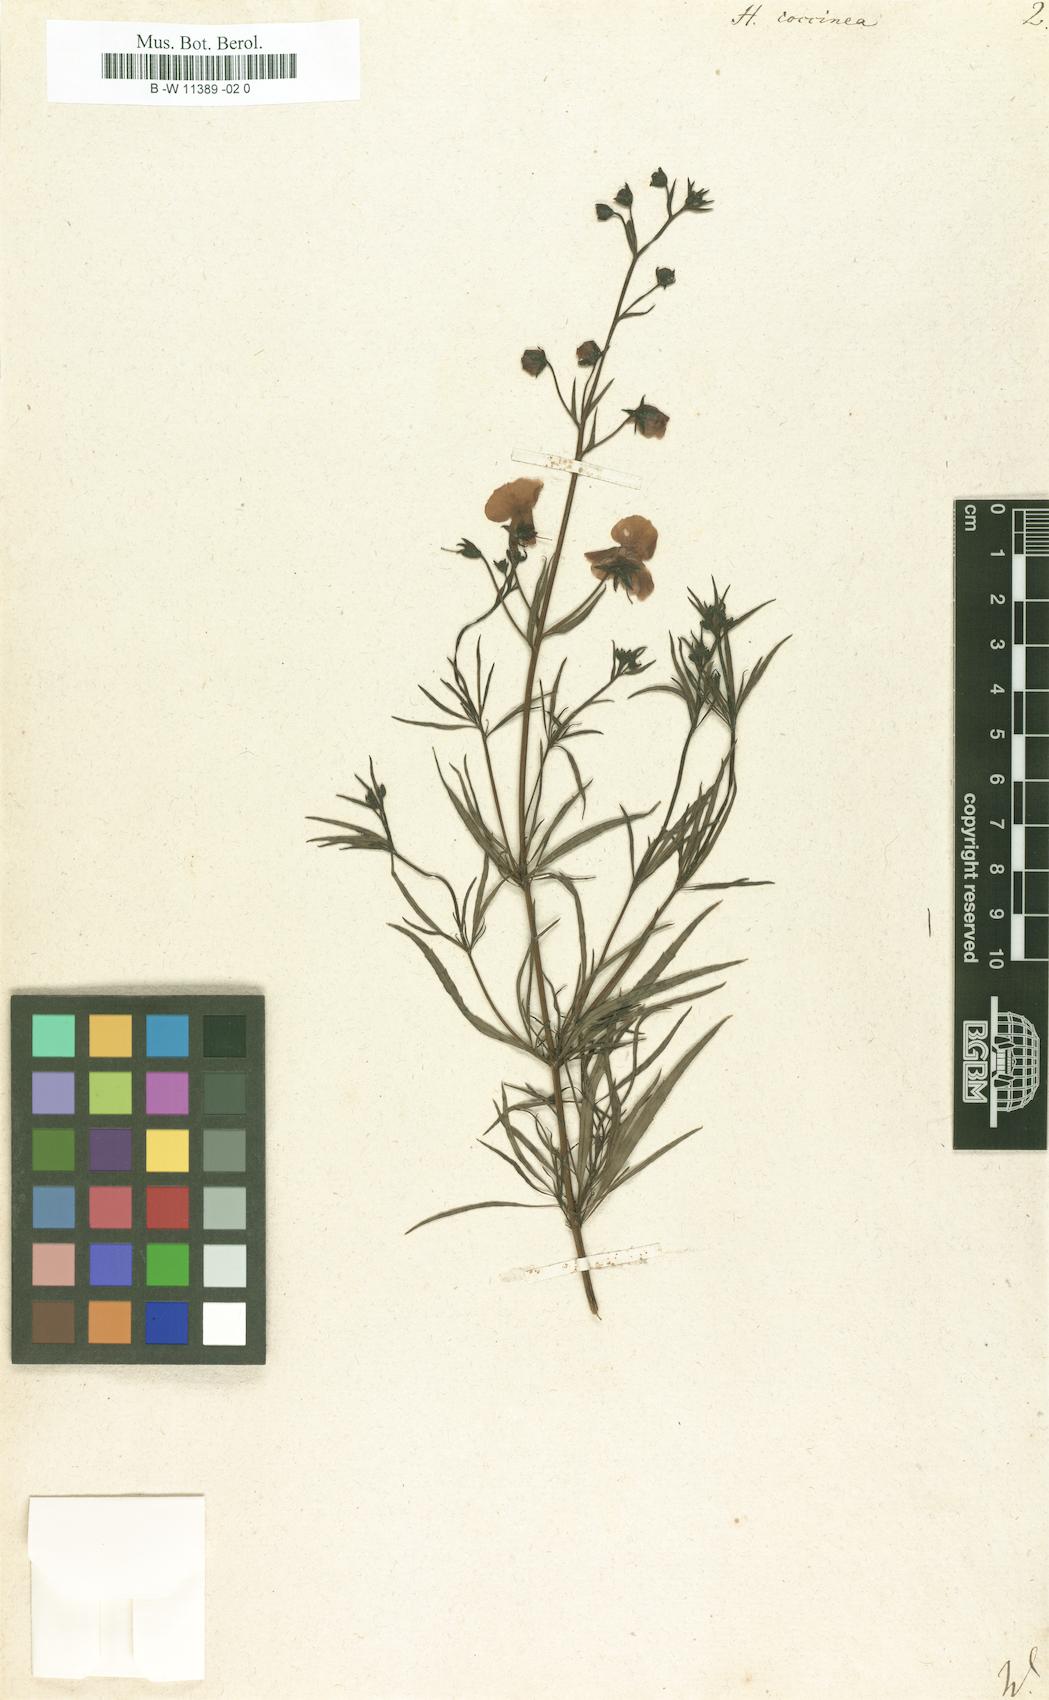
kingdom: Plantae
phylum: Tracheophyta
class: Magnoliopsida
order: Lamiales
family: Scrophulariaceae
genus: Alonsoa
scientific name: Alonsoa linearis
